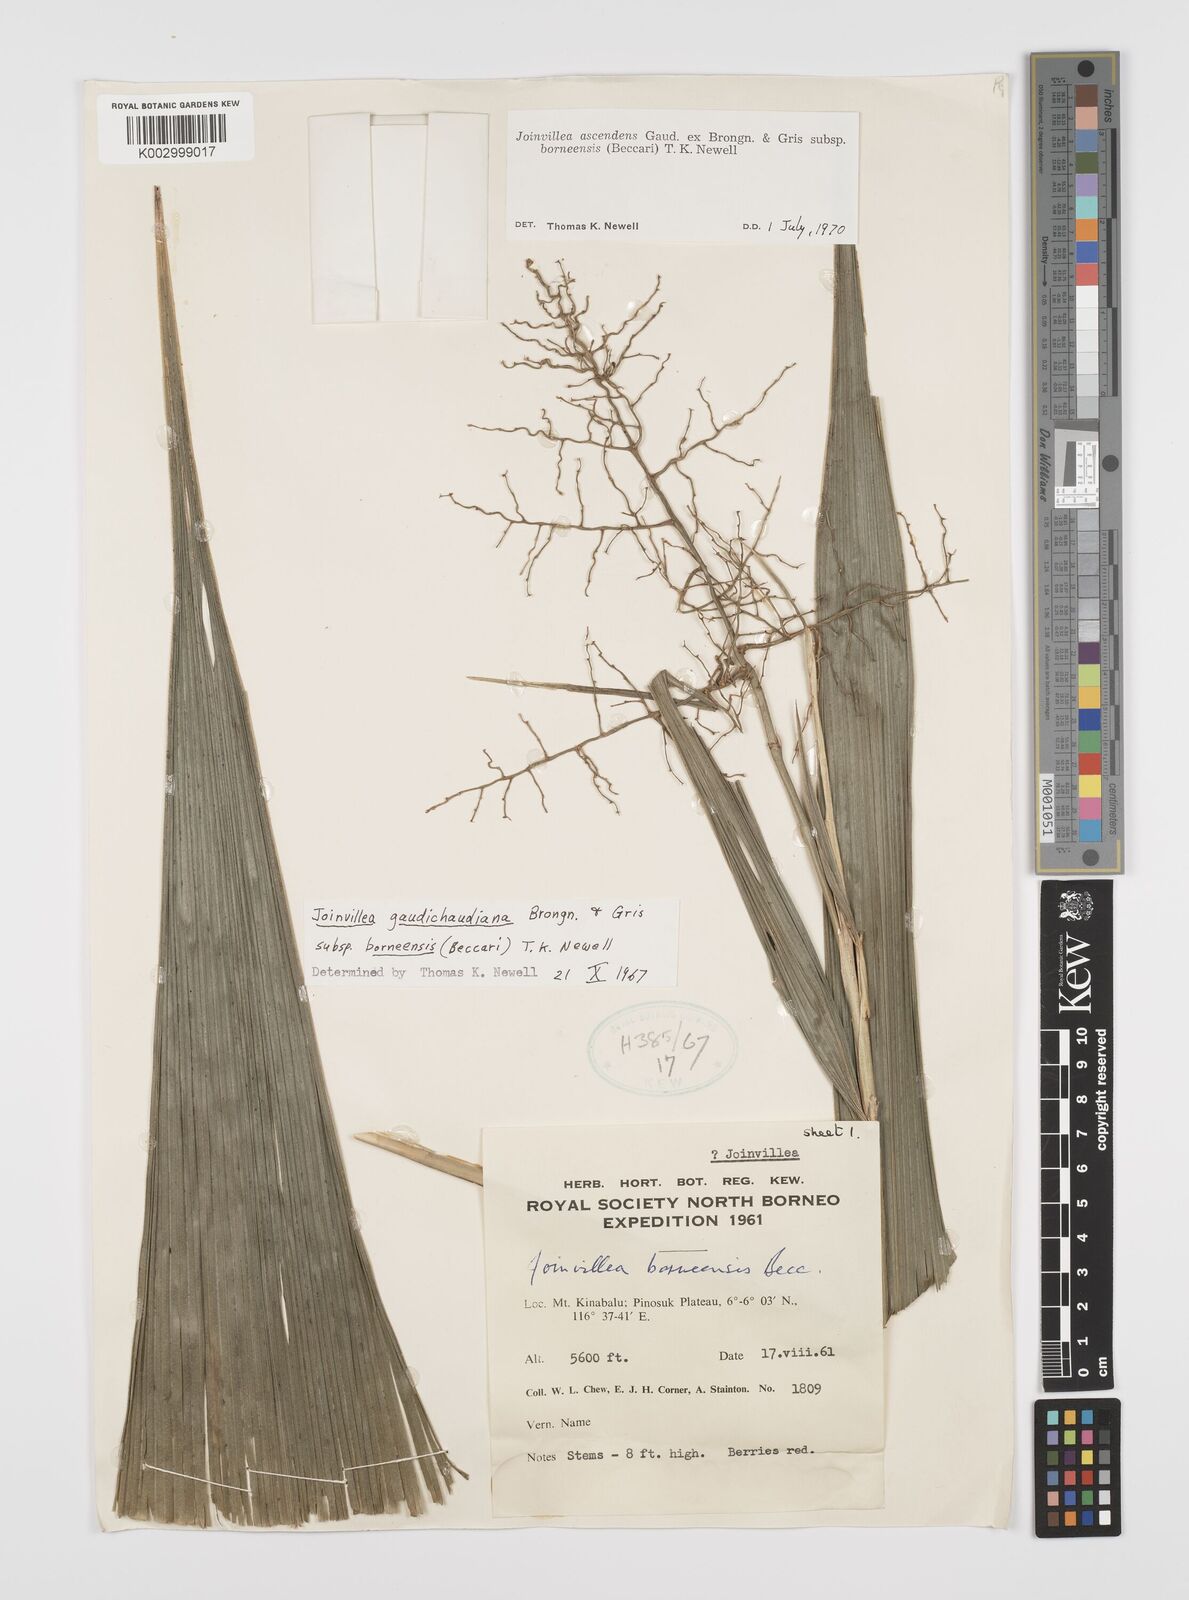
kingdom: Plantae
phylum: Tracheophyta
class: Liliopsida
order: Poales
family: Joinvilleaceae
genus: Joinvillea
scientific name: Joinvillea borneensis
